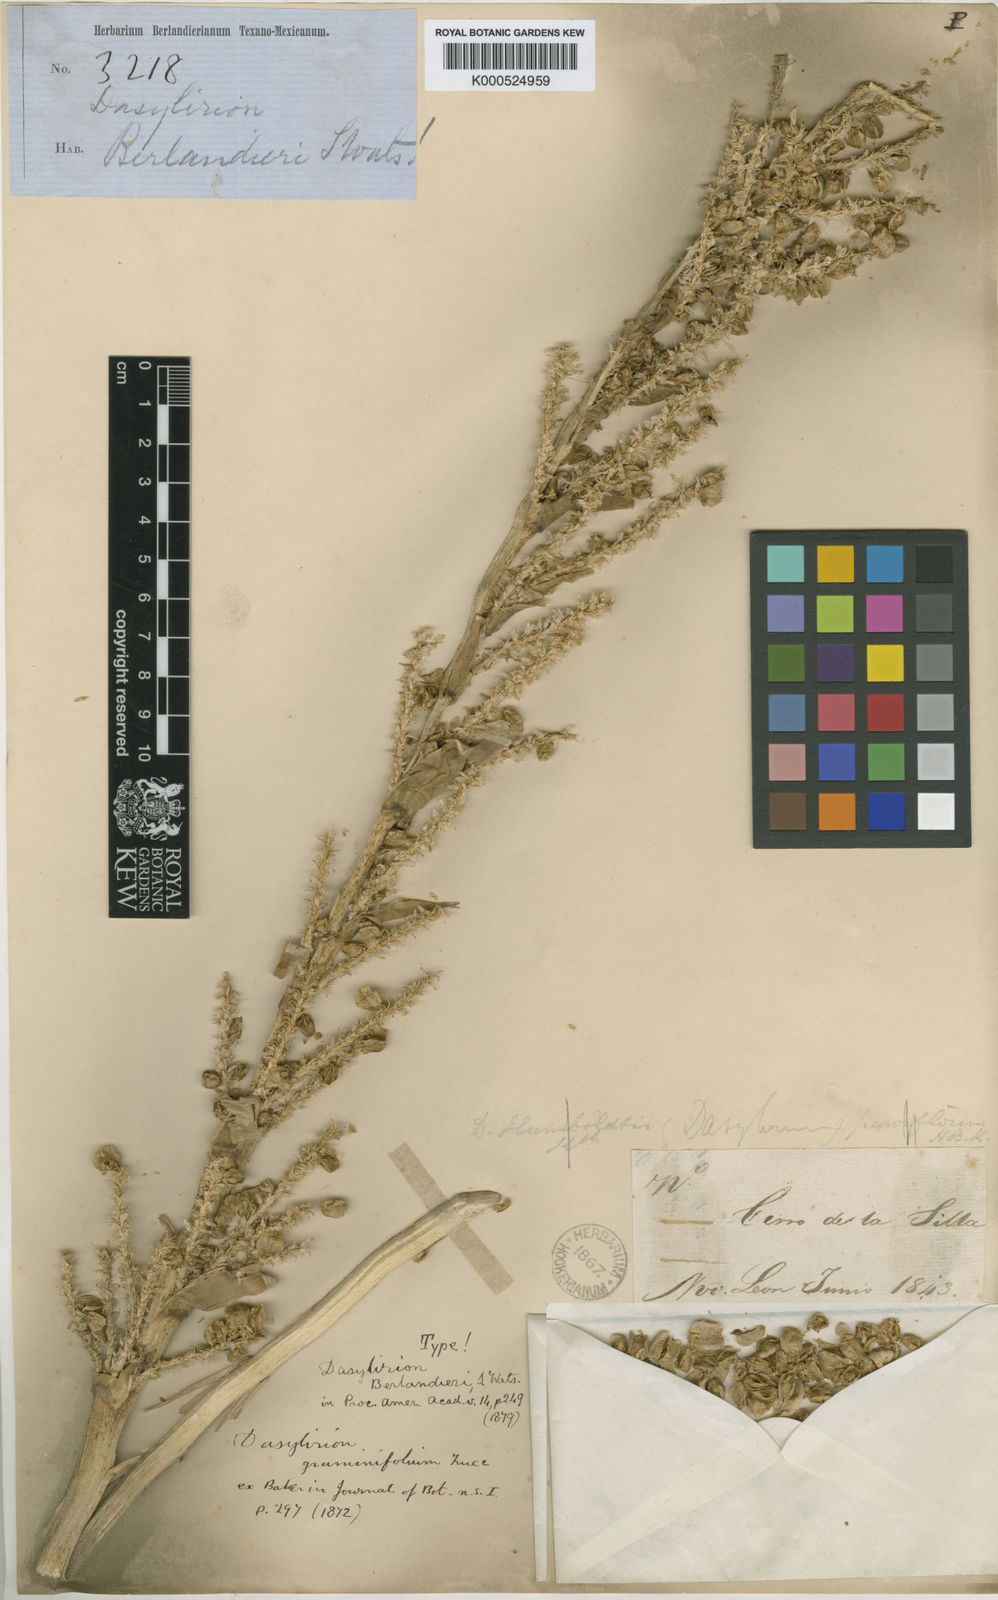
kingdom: Plantae
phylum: Tracheophyta
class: Liliopsida
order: Asparagales
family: Asparagaceae
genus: Dasylirion
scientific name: Dasylirion berlandieri
